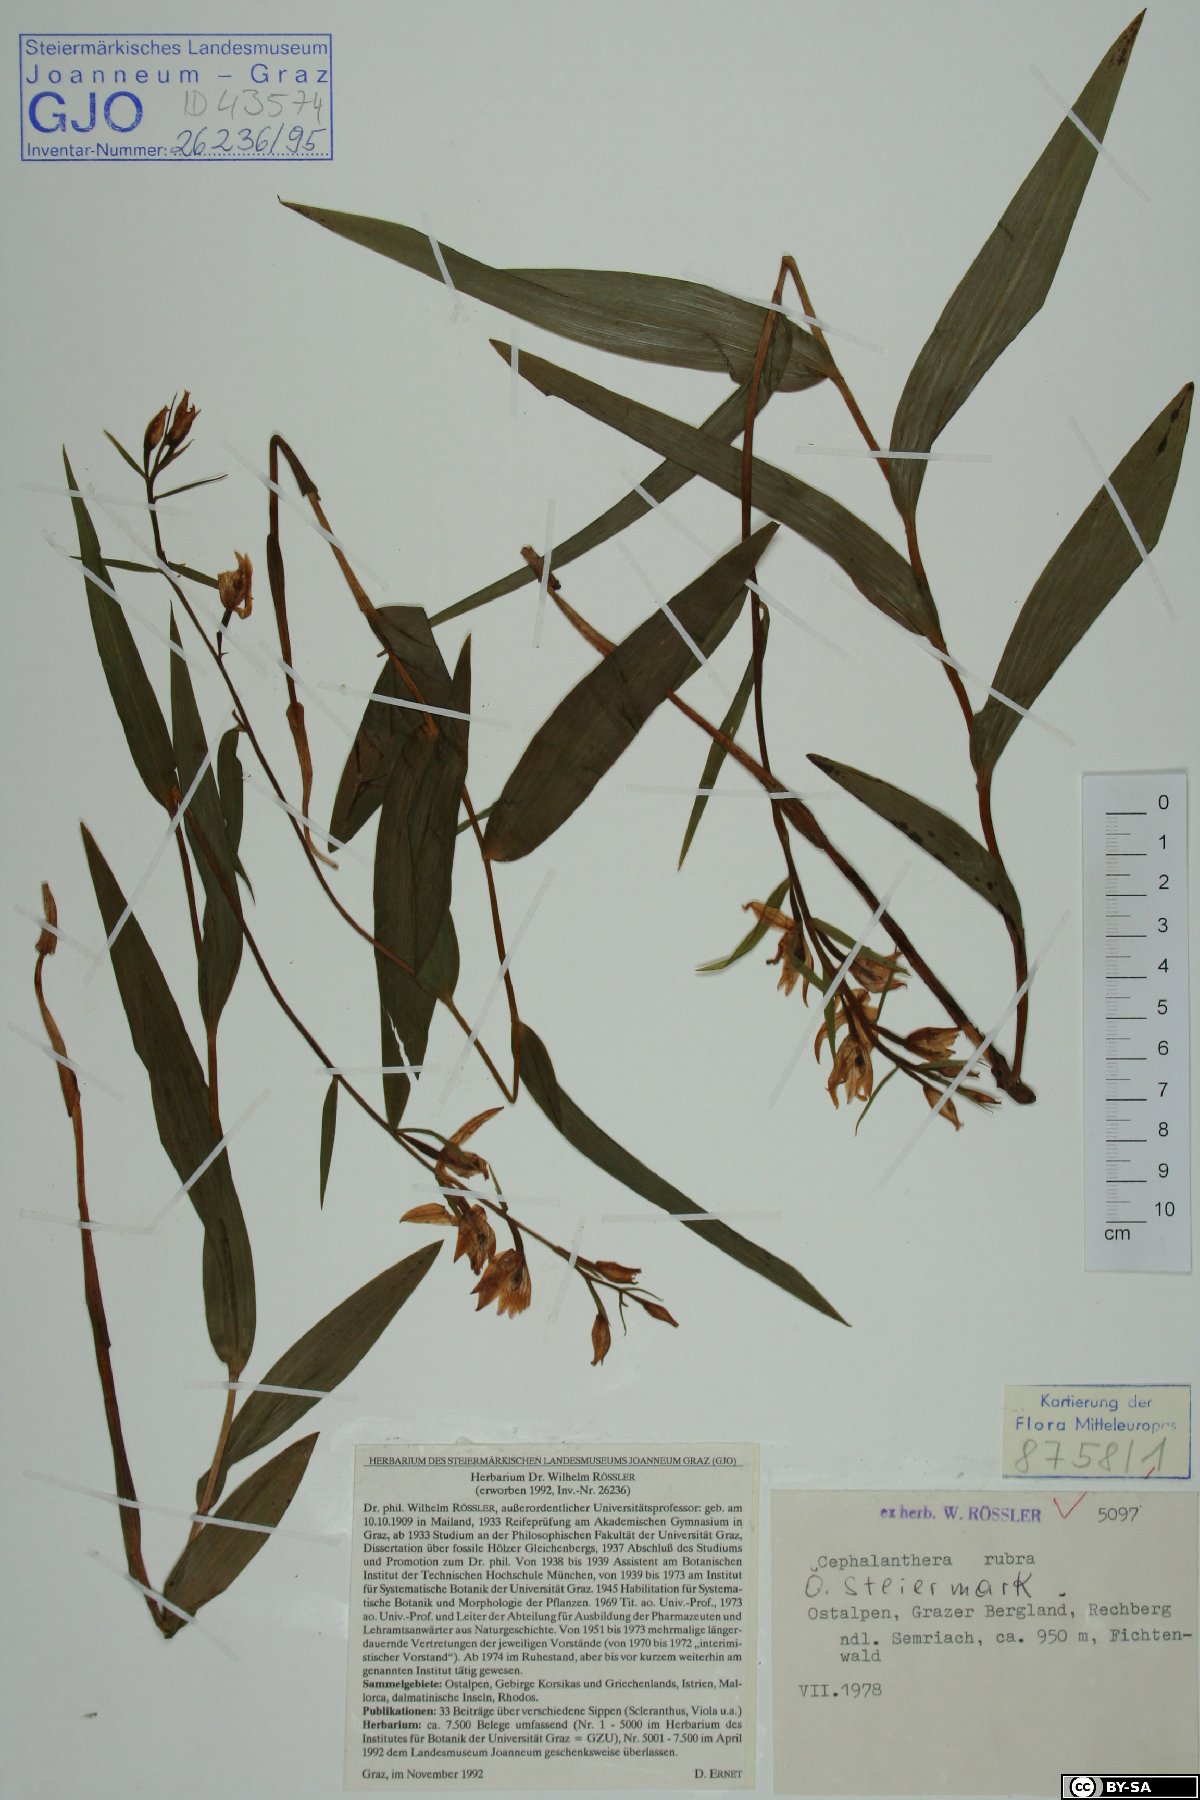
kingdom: Plantae
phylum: Tracheophyta
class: Liliopsida
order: Asparagales
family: Orchidaceae
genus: Cephalanthera
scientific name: Cephalanthera rubra
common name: Red helleborine
